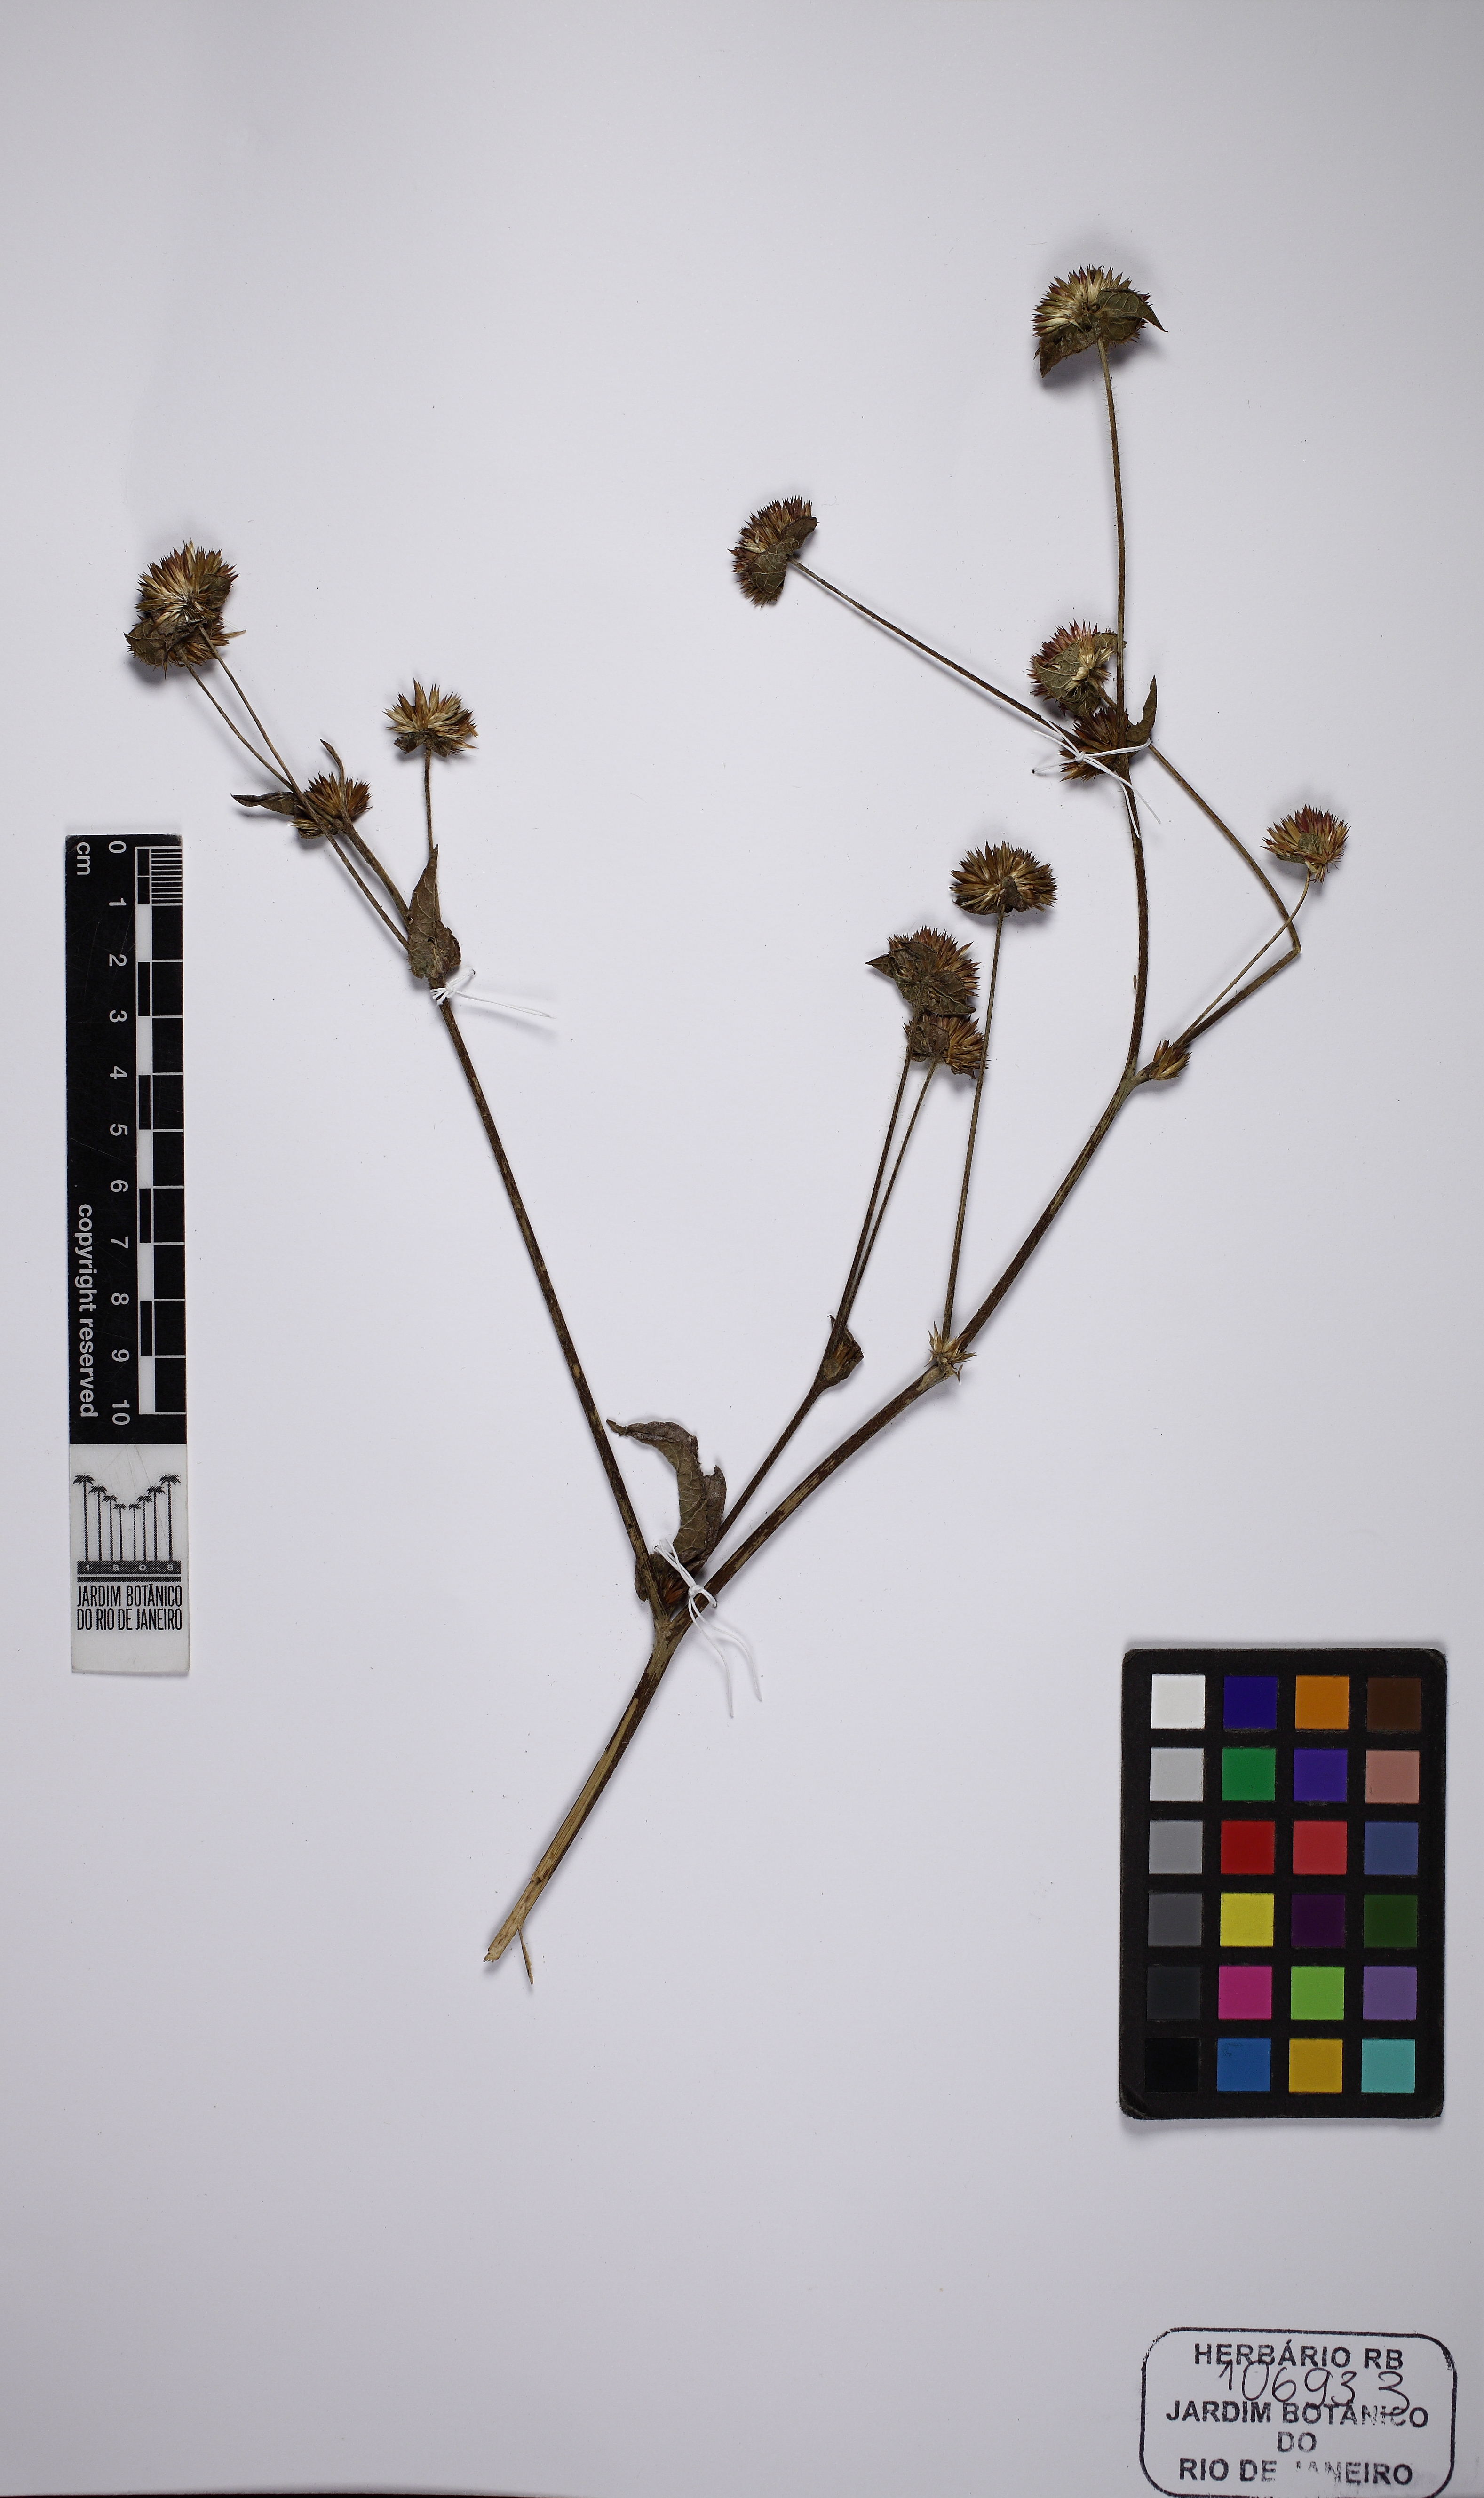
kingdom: Plantae
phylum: Tracheophyta
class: Magnoliopsida
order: Asterales
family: Asteraceae
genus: Elephantopus
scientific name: Elephantopus mollis
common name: Soft elephantsfoot
